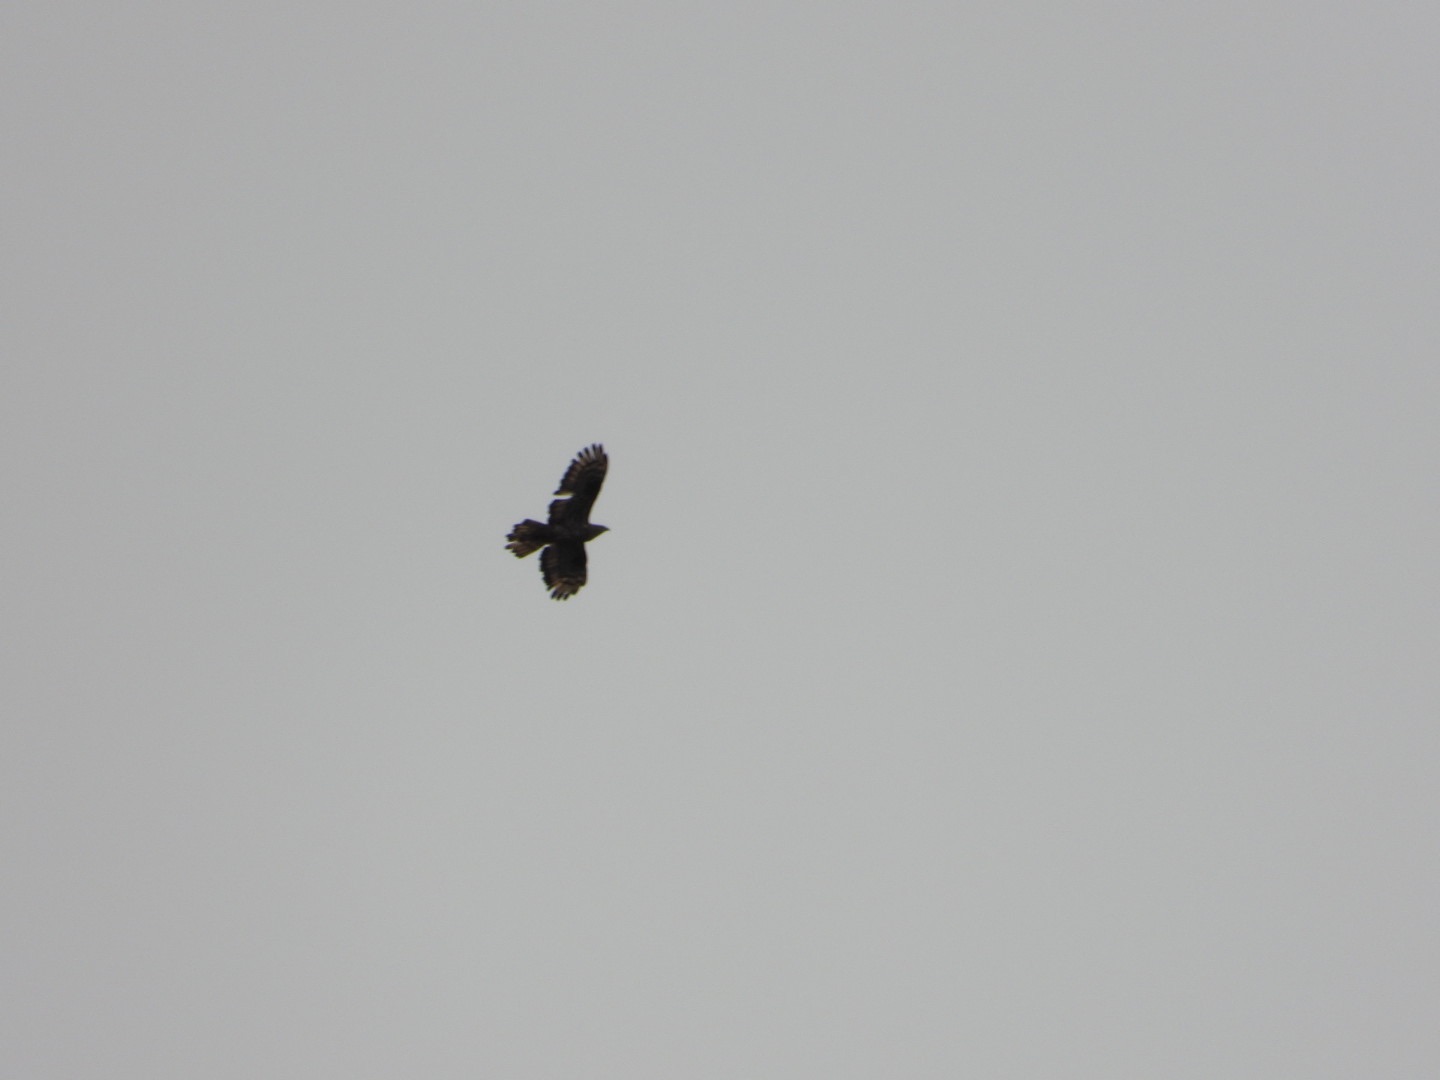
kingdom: Animalia
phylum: Chordata
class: Aves
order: Accipitriformes
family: Accipitridae
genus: Pernis
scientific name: Pernis apivorus
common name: Hvepsevåge
